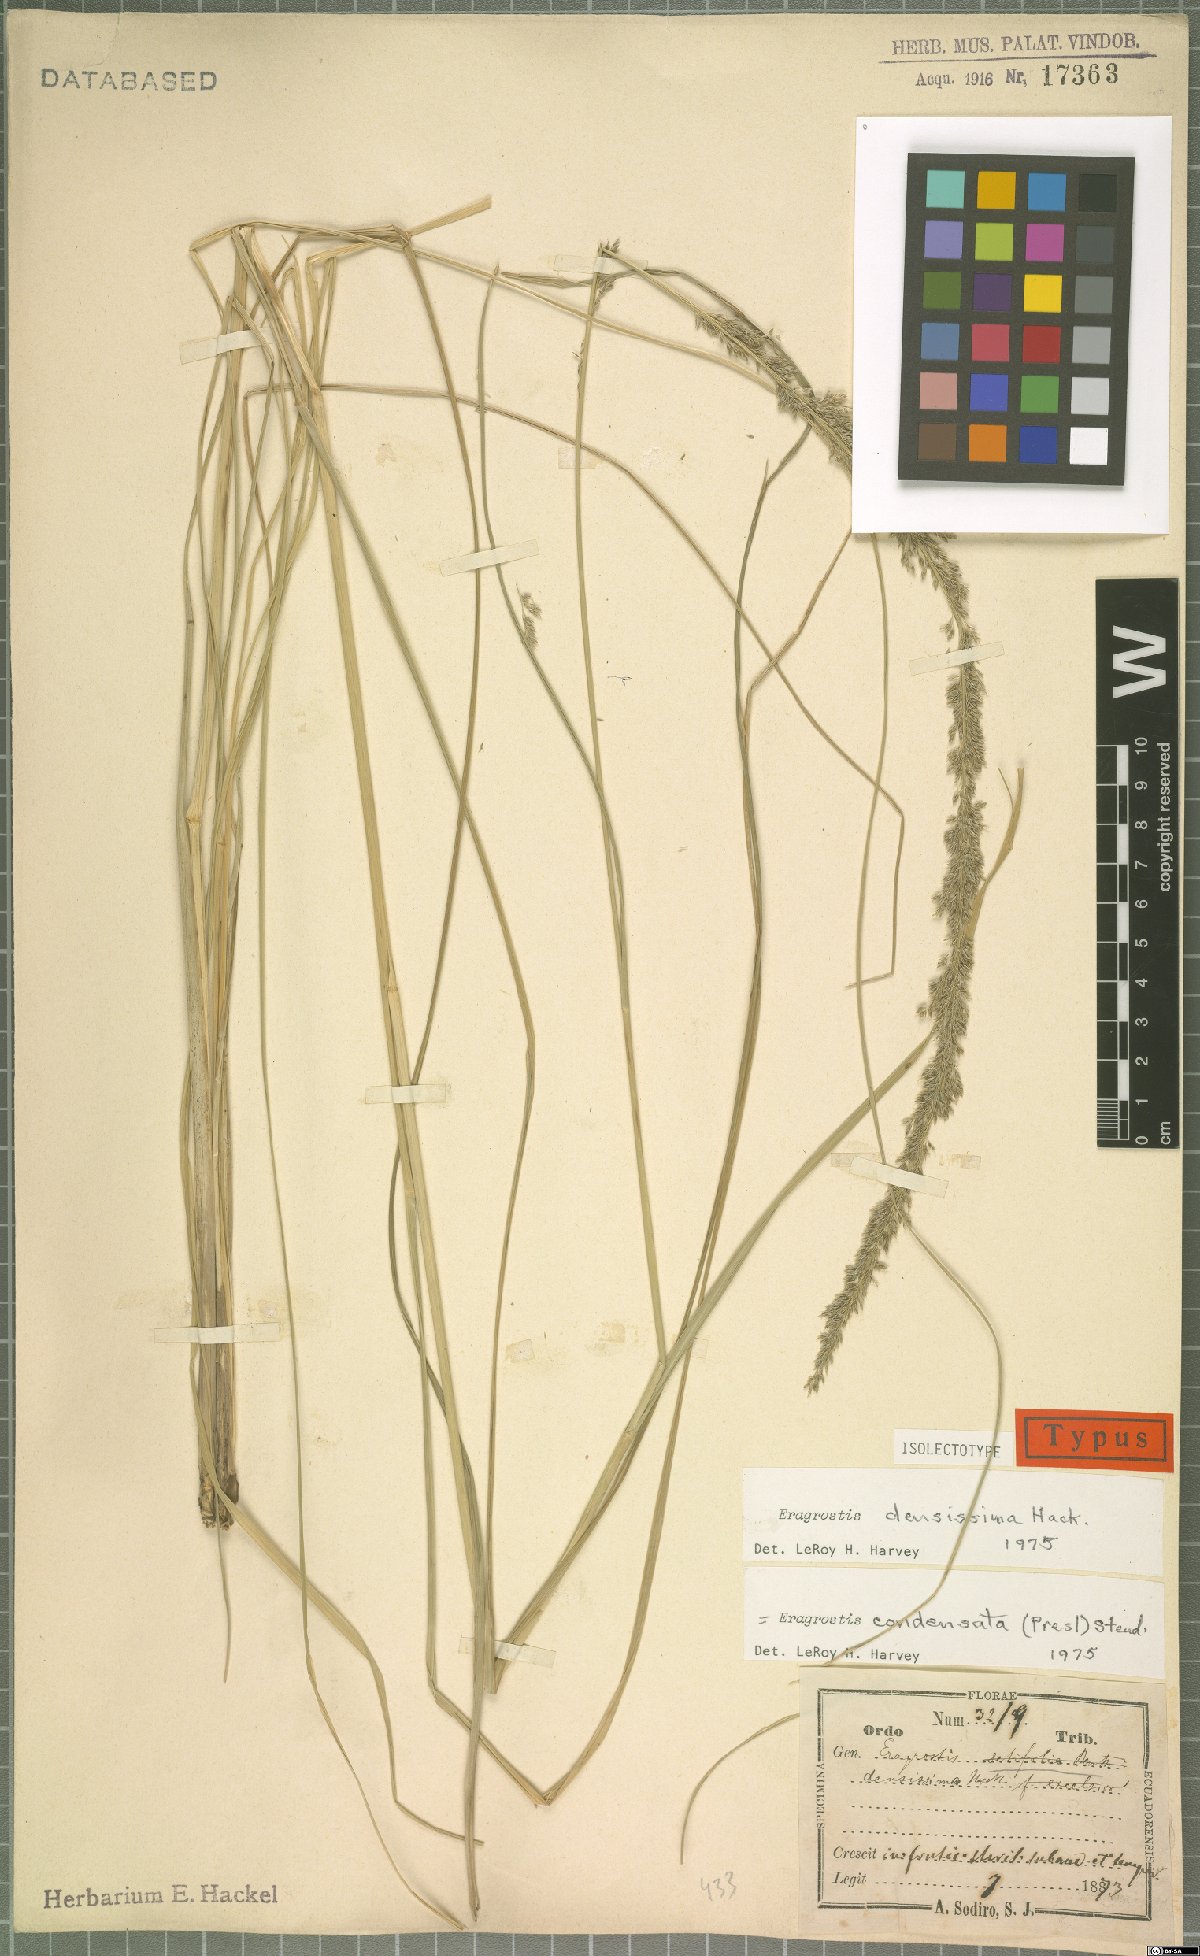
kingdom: Plantae
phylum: Tracheophyta
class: Liliopsida
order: Poales
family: Poaceae
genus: Eragrostis
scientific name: Eragrostis condensata
